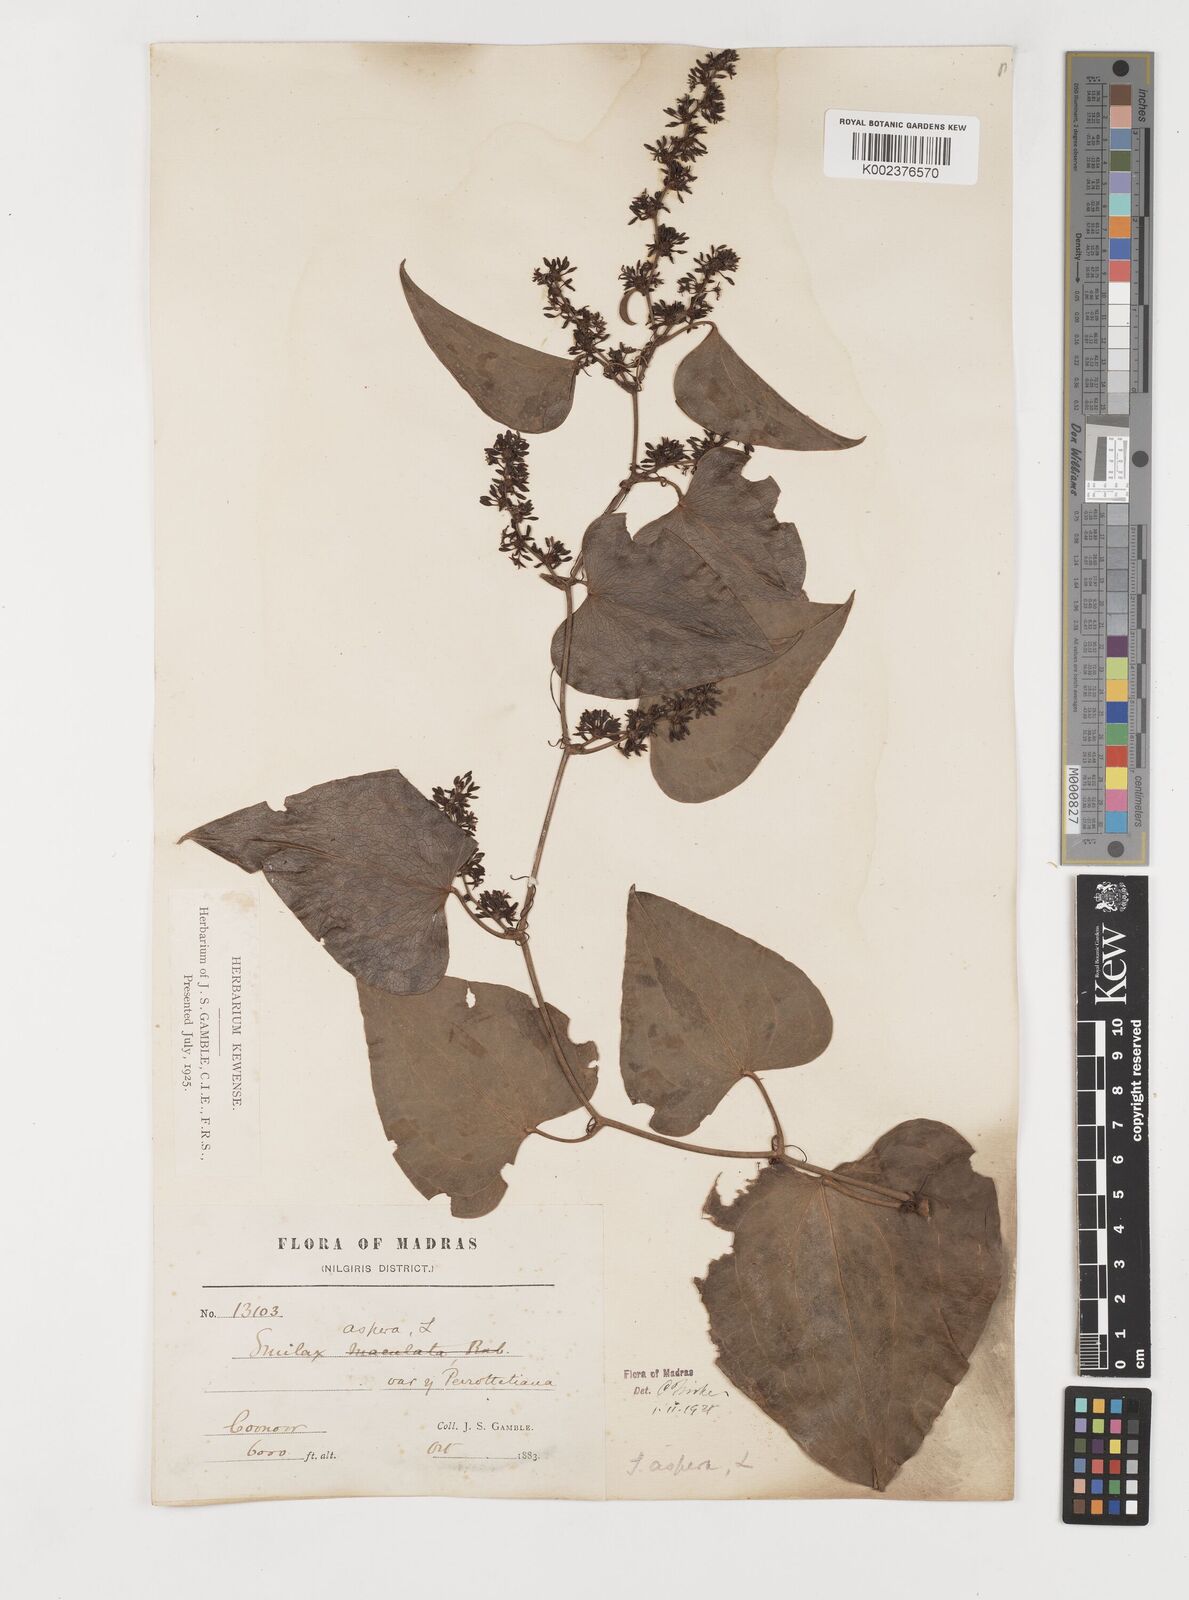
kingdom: Plantae
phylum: Tracheophyta
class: Liliopsida
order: Liliales
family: Smilacaceae
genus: Smilax
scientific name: Smilax aspera
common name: Common smilax
